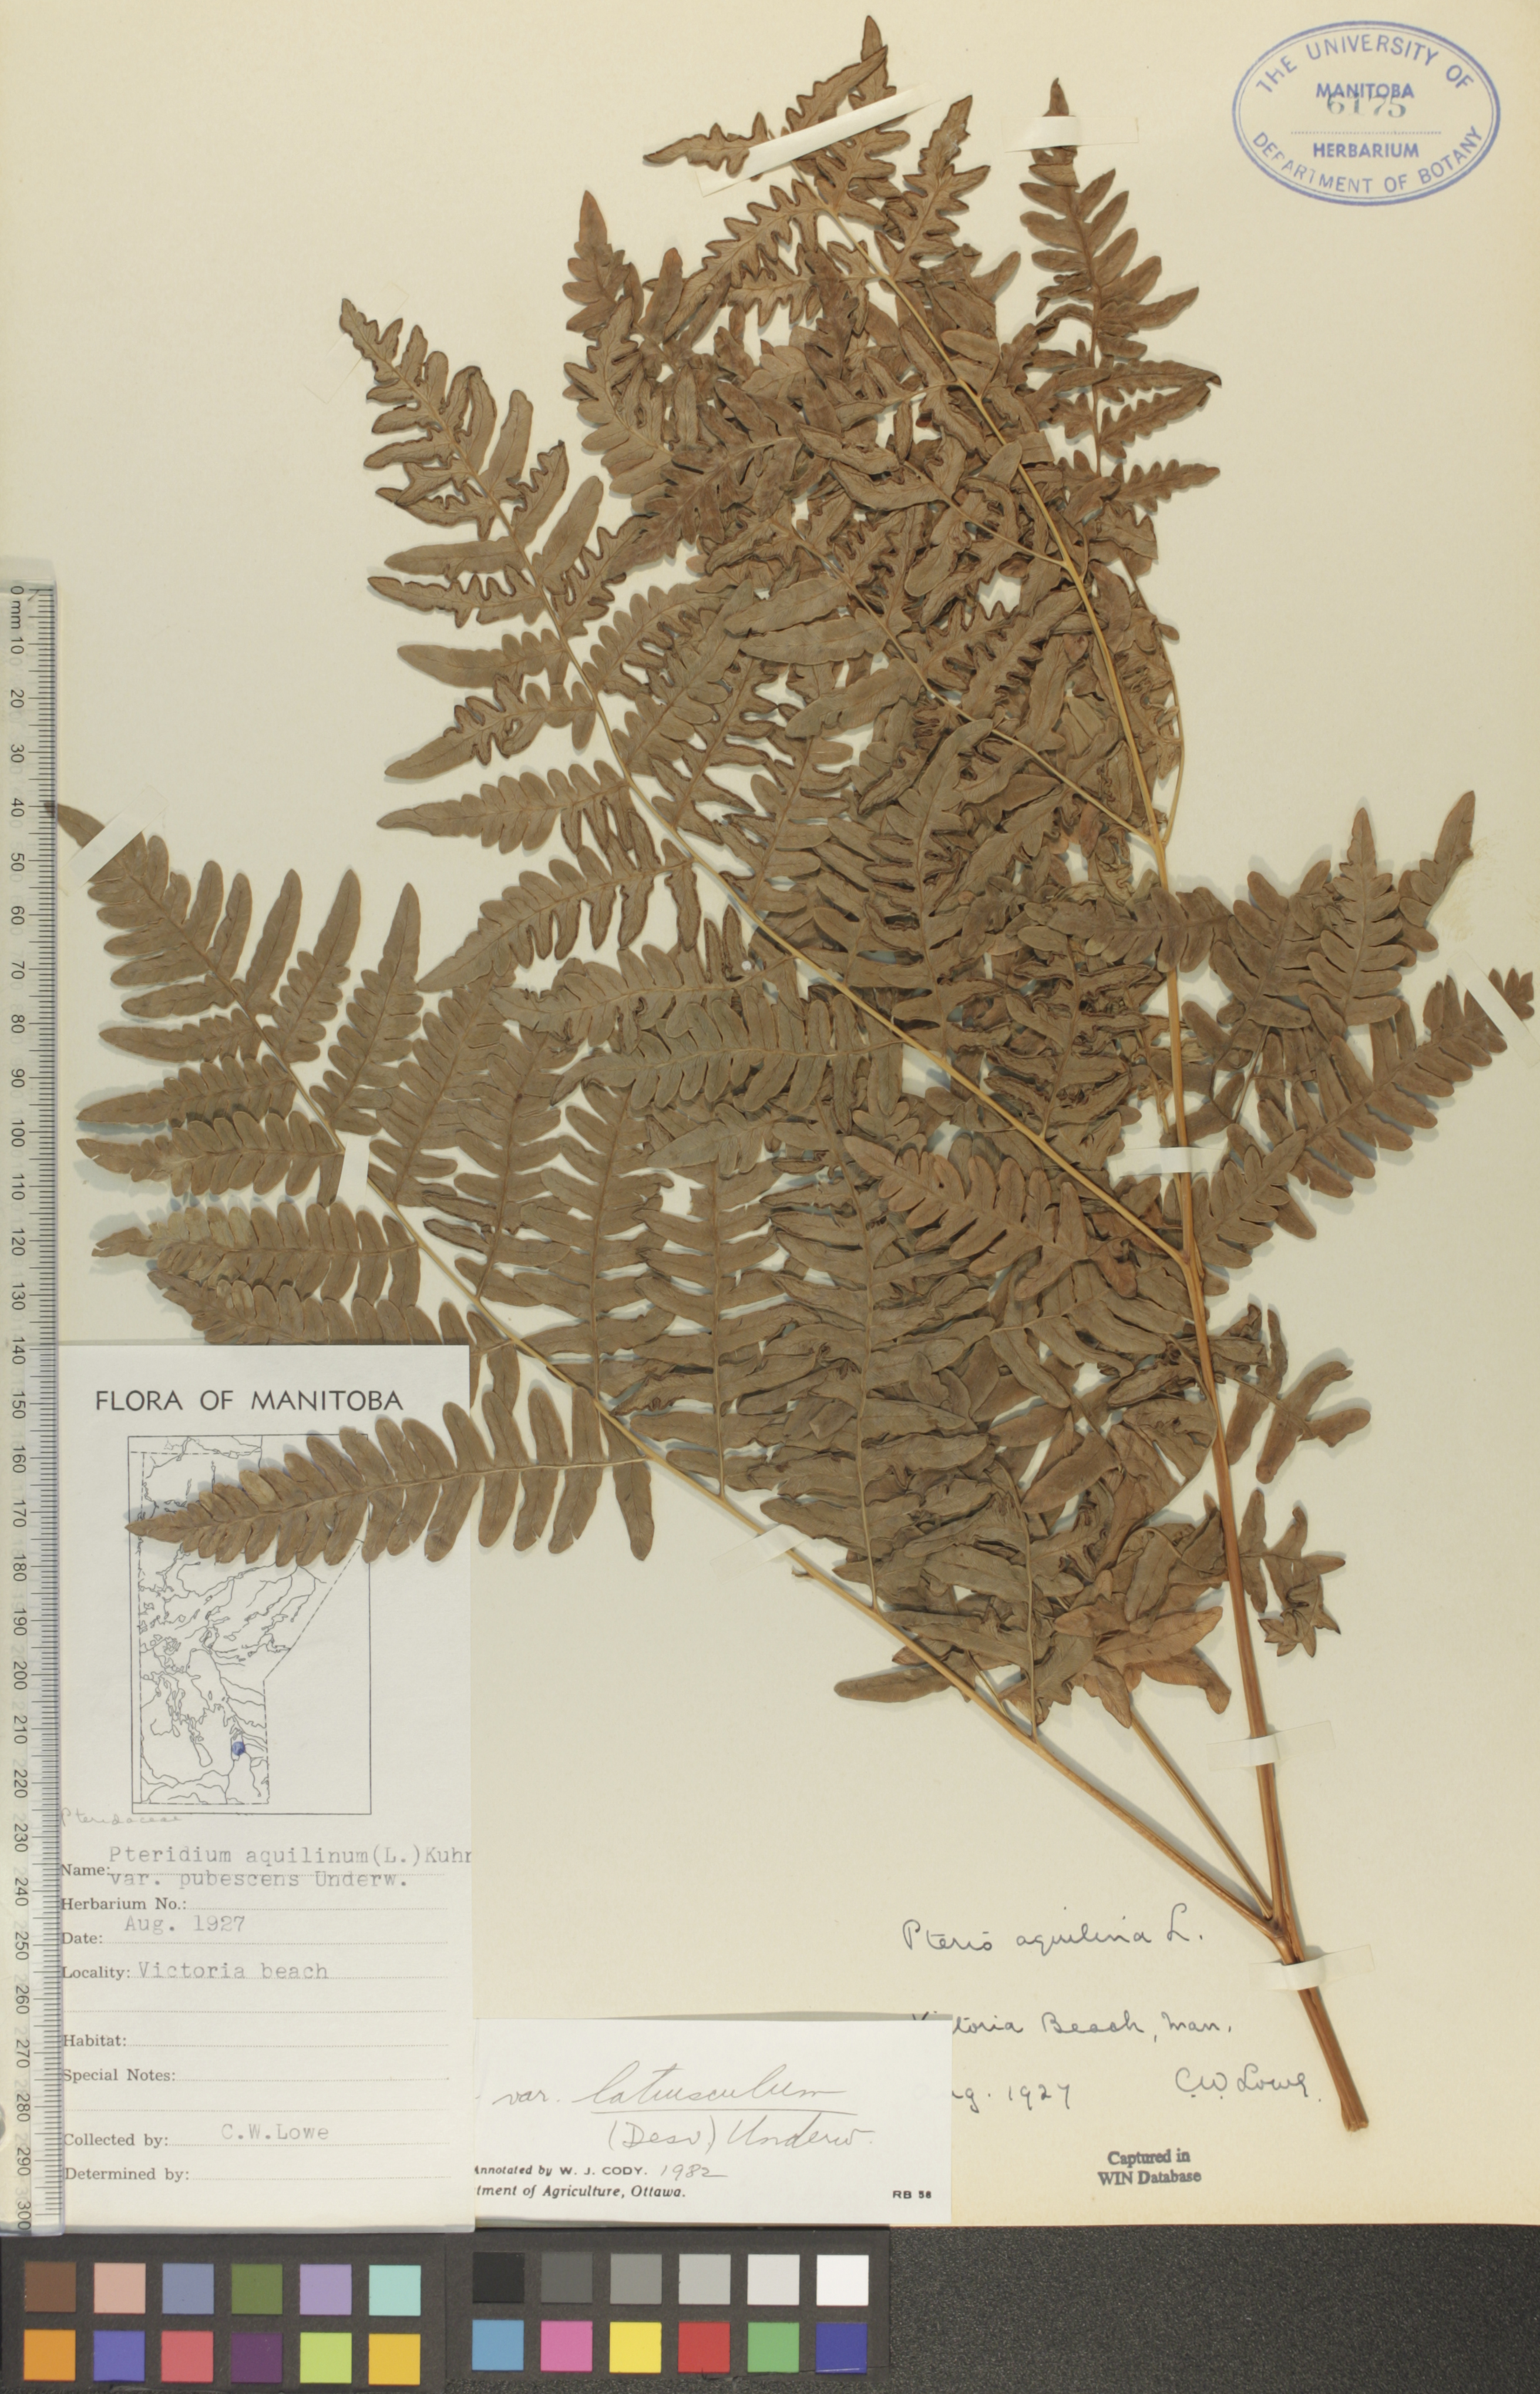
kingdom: Plantae
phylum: Tracheophyta
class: Polypodiopsida
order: Polypodiales
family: Dennstaedtiaceae
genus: Pteridium
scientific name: Pteridium aquilinum
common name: Bracken
